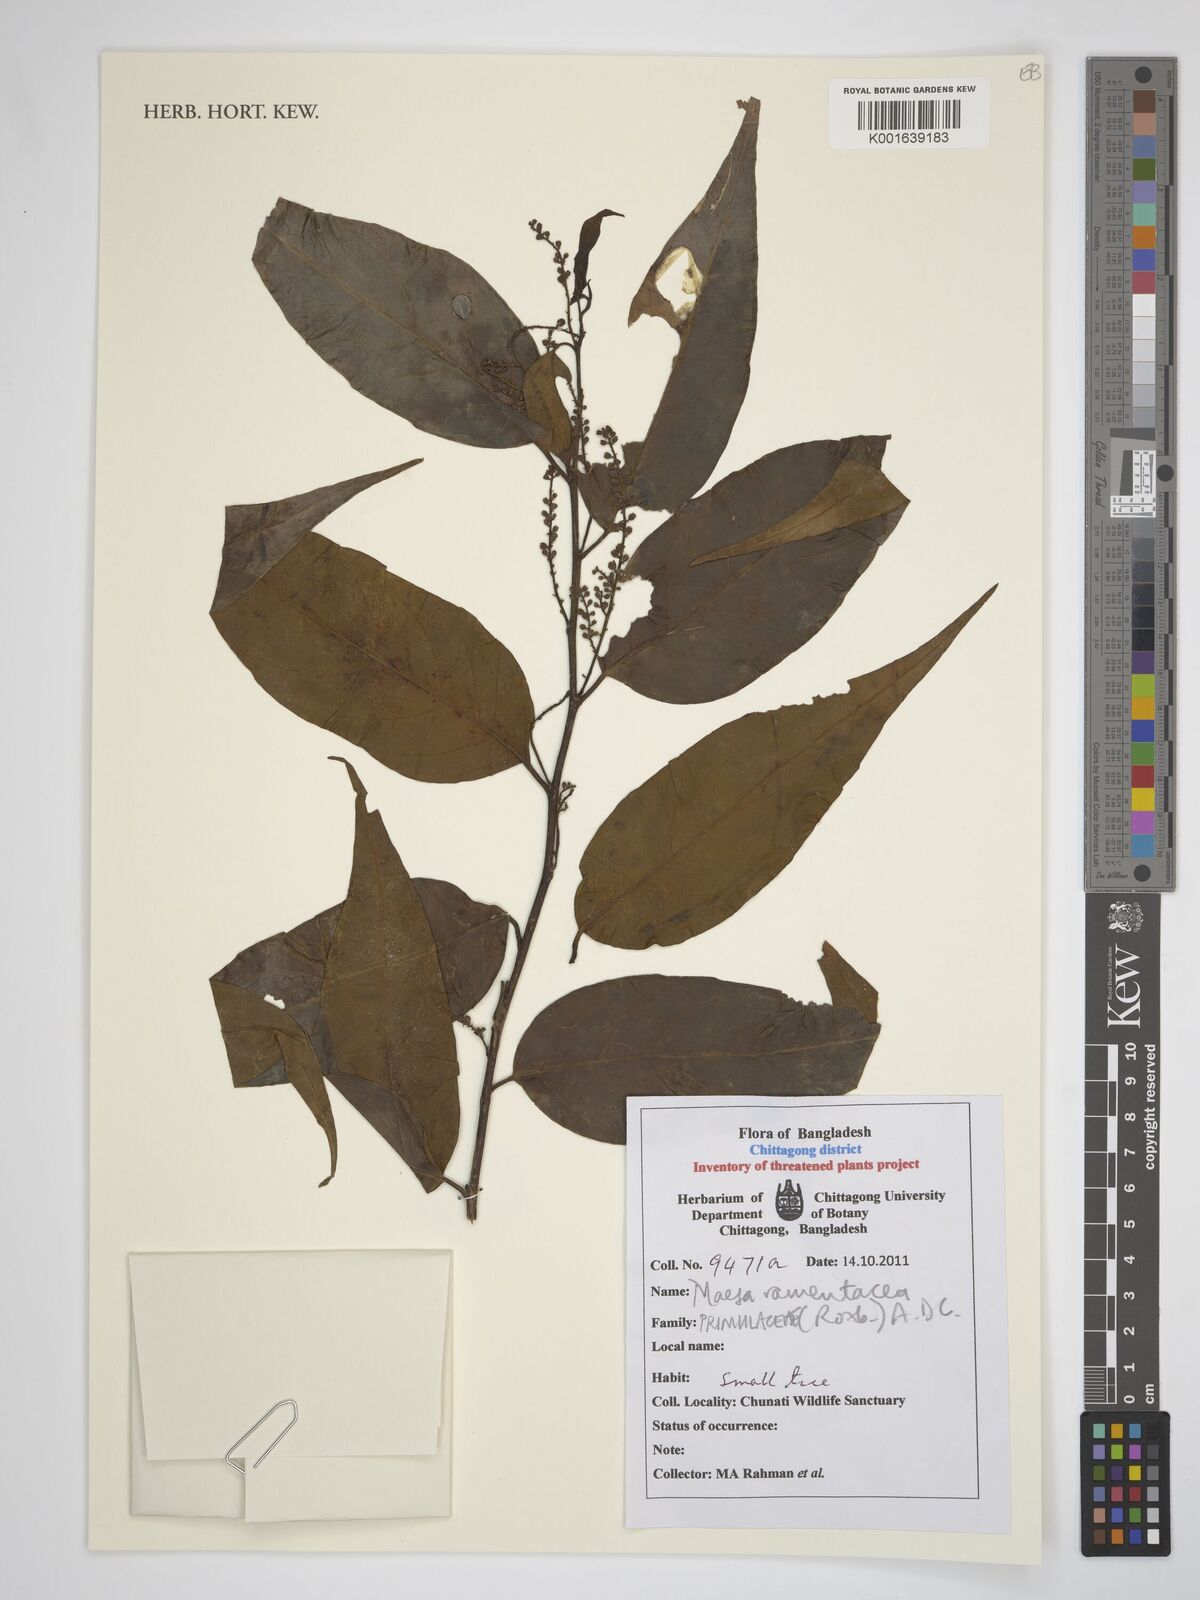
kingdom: Plantae
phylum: Tracheophyta
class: Magnoliopsida
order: Ericales
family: Primulaceae
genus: Maesa
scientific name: Maesa ramentacea
